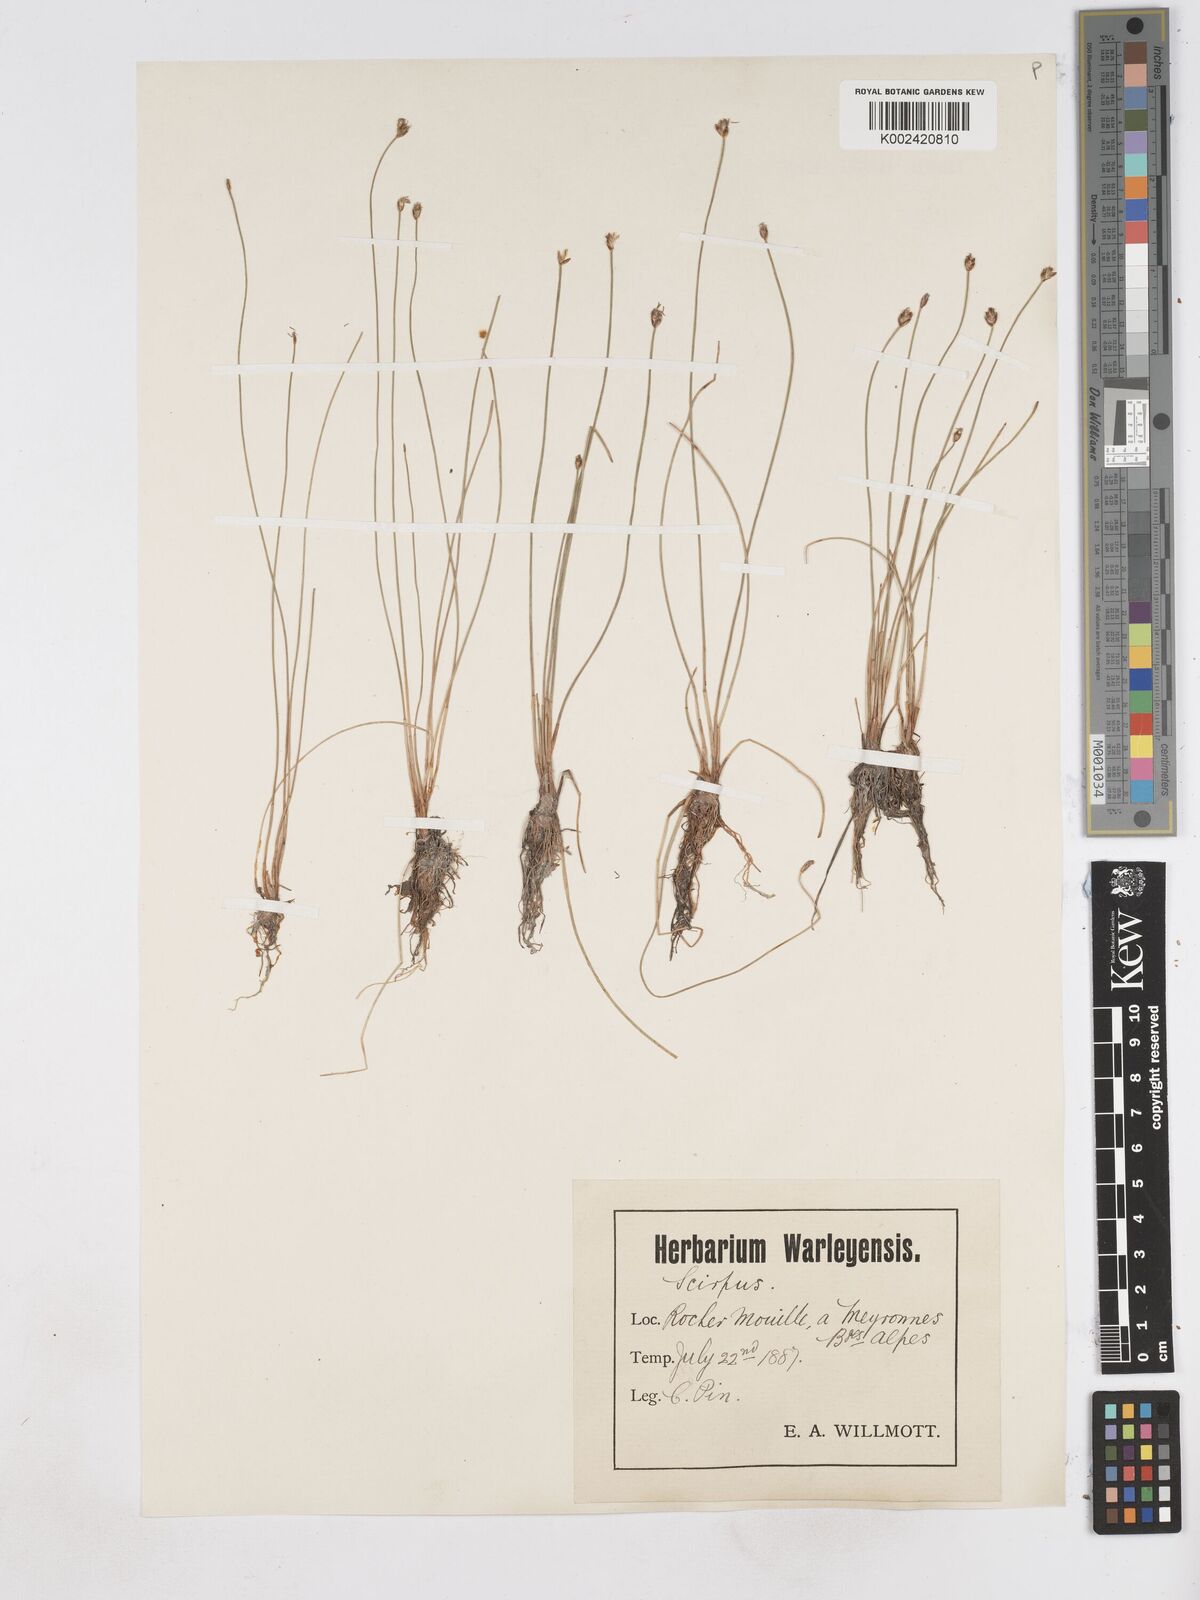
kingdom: Plantae
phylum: Tracheophyta
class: Liliopsida
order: Poales
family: Cyperaceae
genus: Eleocharis
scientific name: Eleocharis quinqueflora
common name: Few-flowered spike-rush
